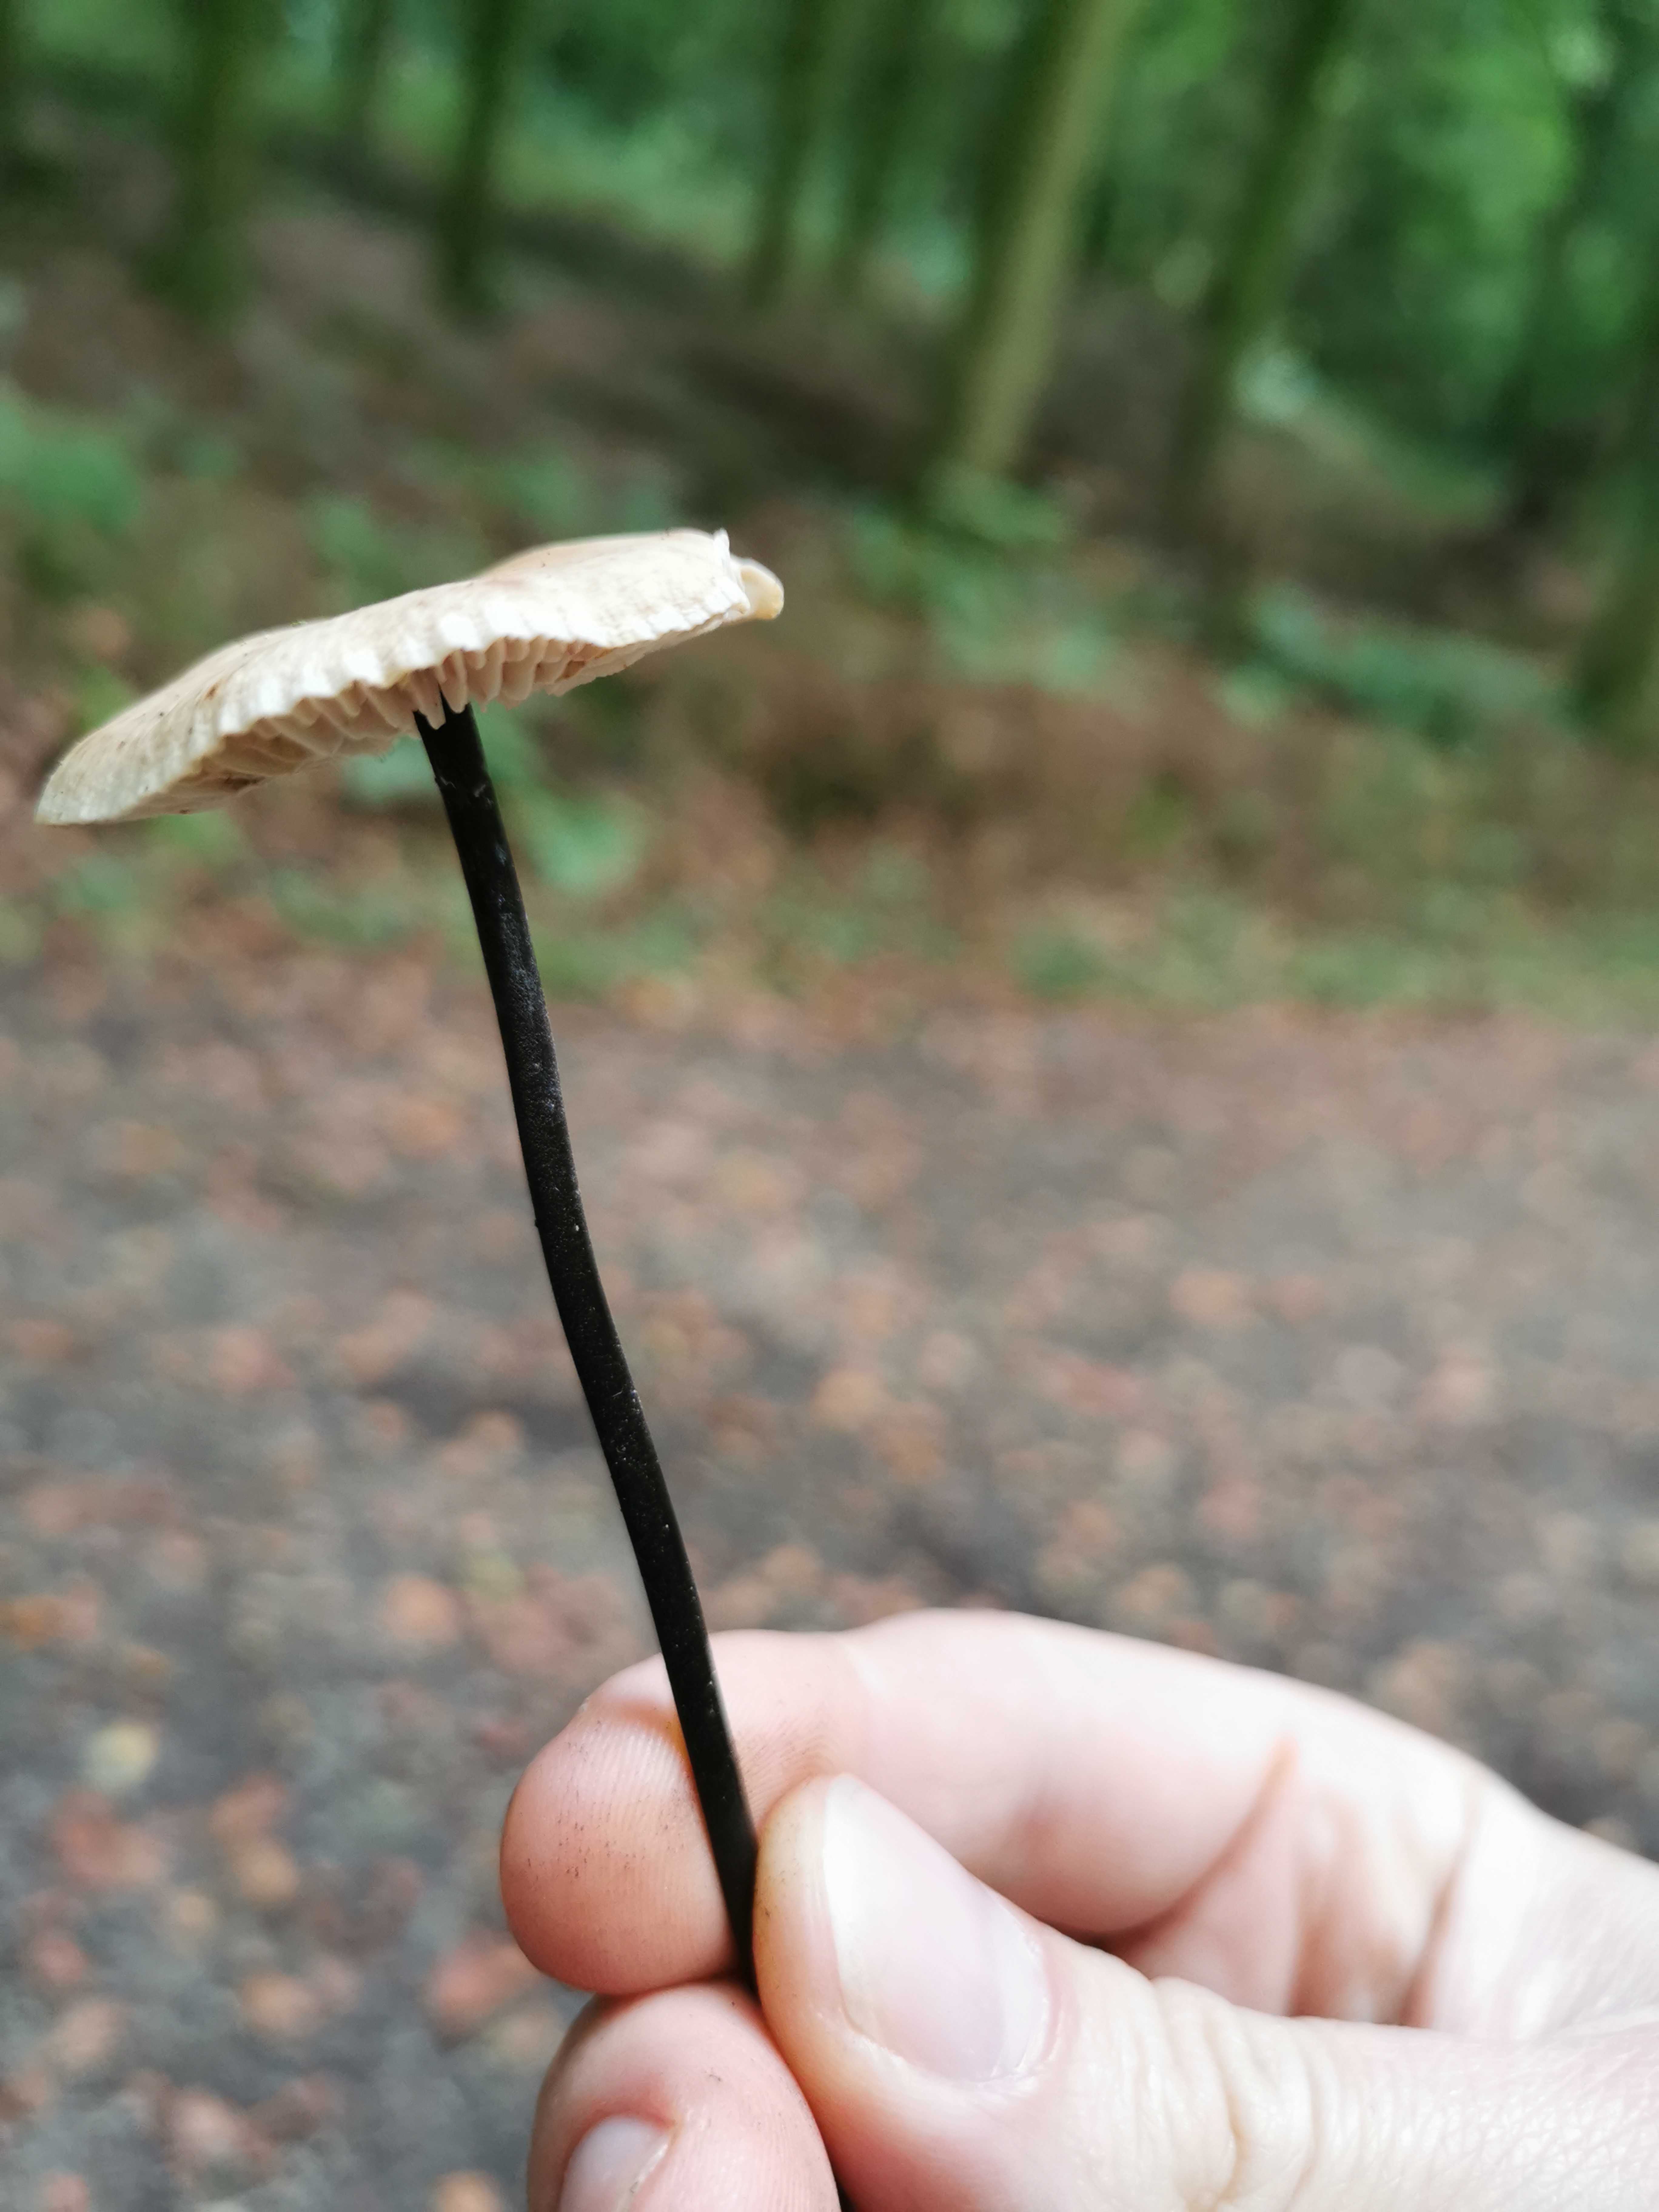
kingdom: Fungi
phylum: Basidiomycota
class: Agaricomycetes
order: Agaricales
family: Omphalotaceae
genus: Mycetinis
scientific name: Mycetinis alliaceus
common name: stor løghat
